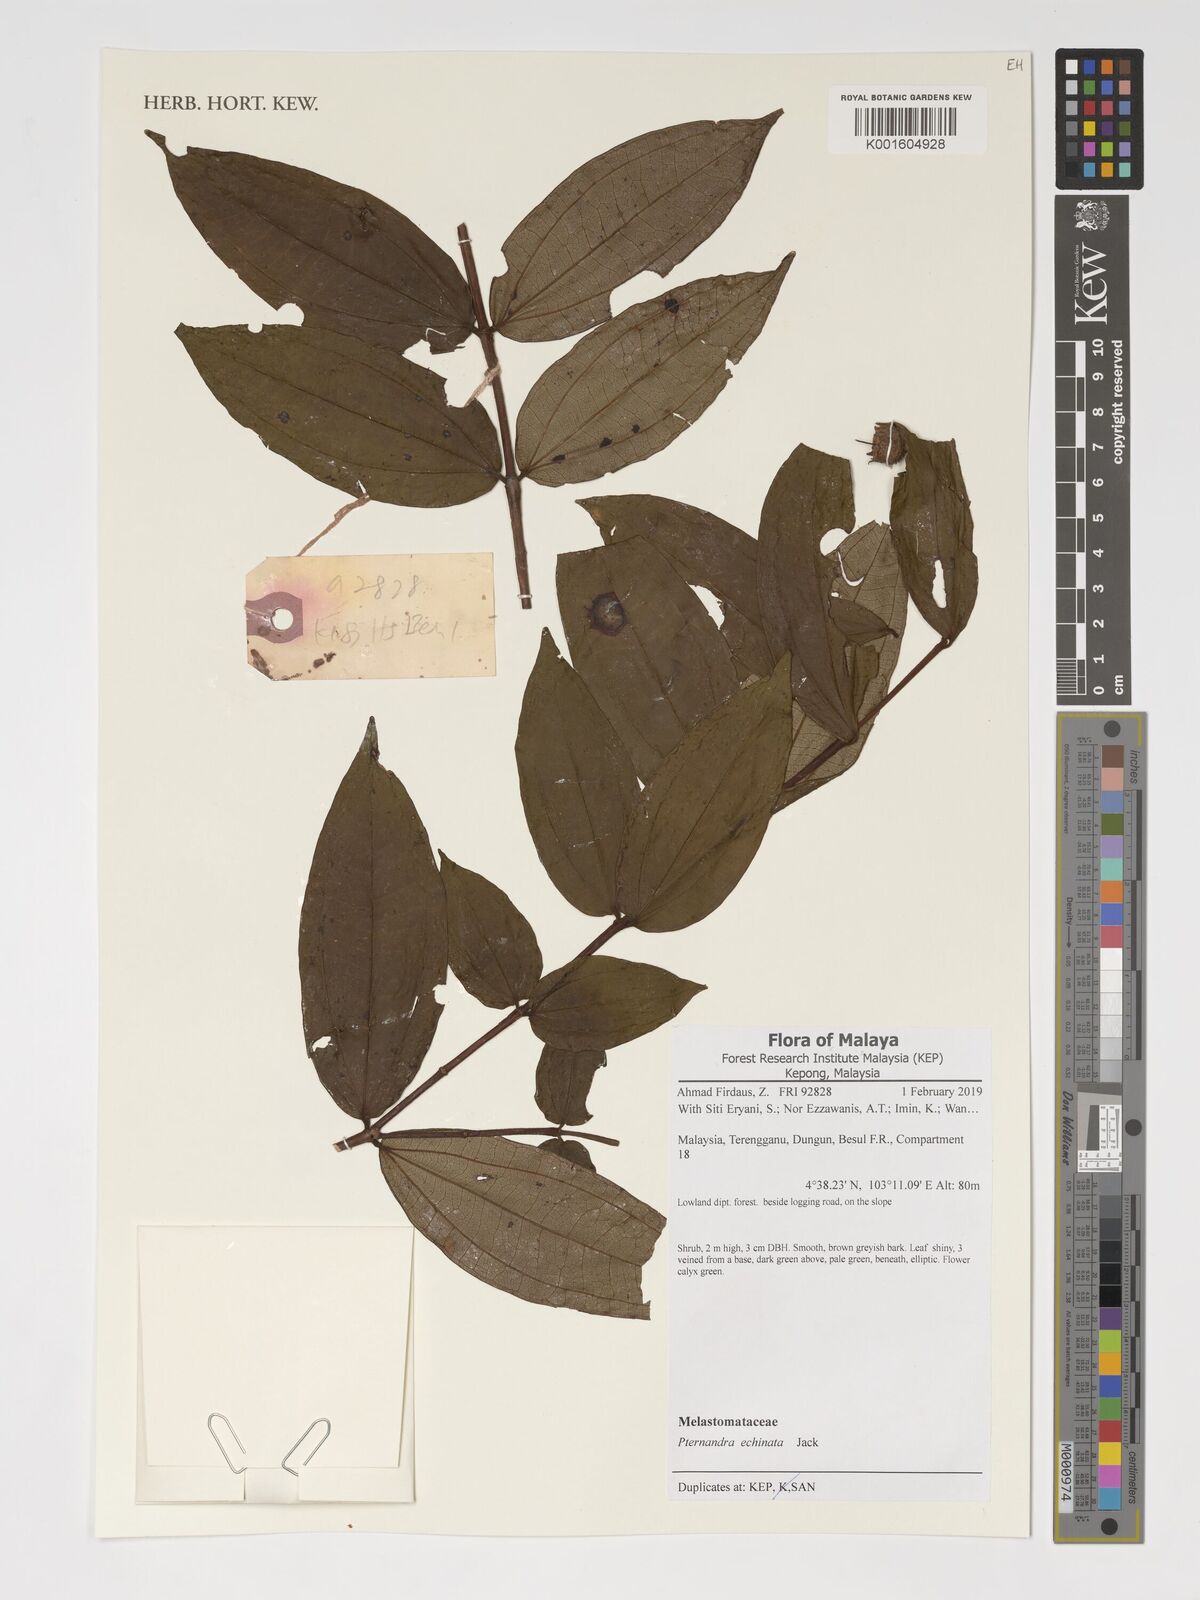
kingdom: Plantae
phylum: Tracheophyta
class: Magnoliopsida
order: Myrtales
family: Melastomataceae
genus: Pternandra
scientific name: Pternandra echinata
